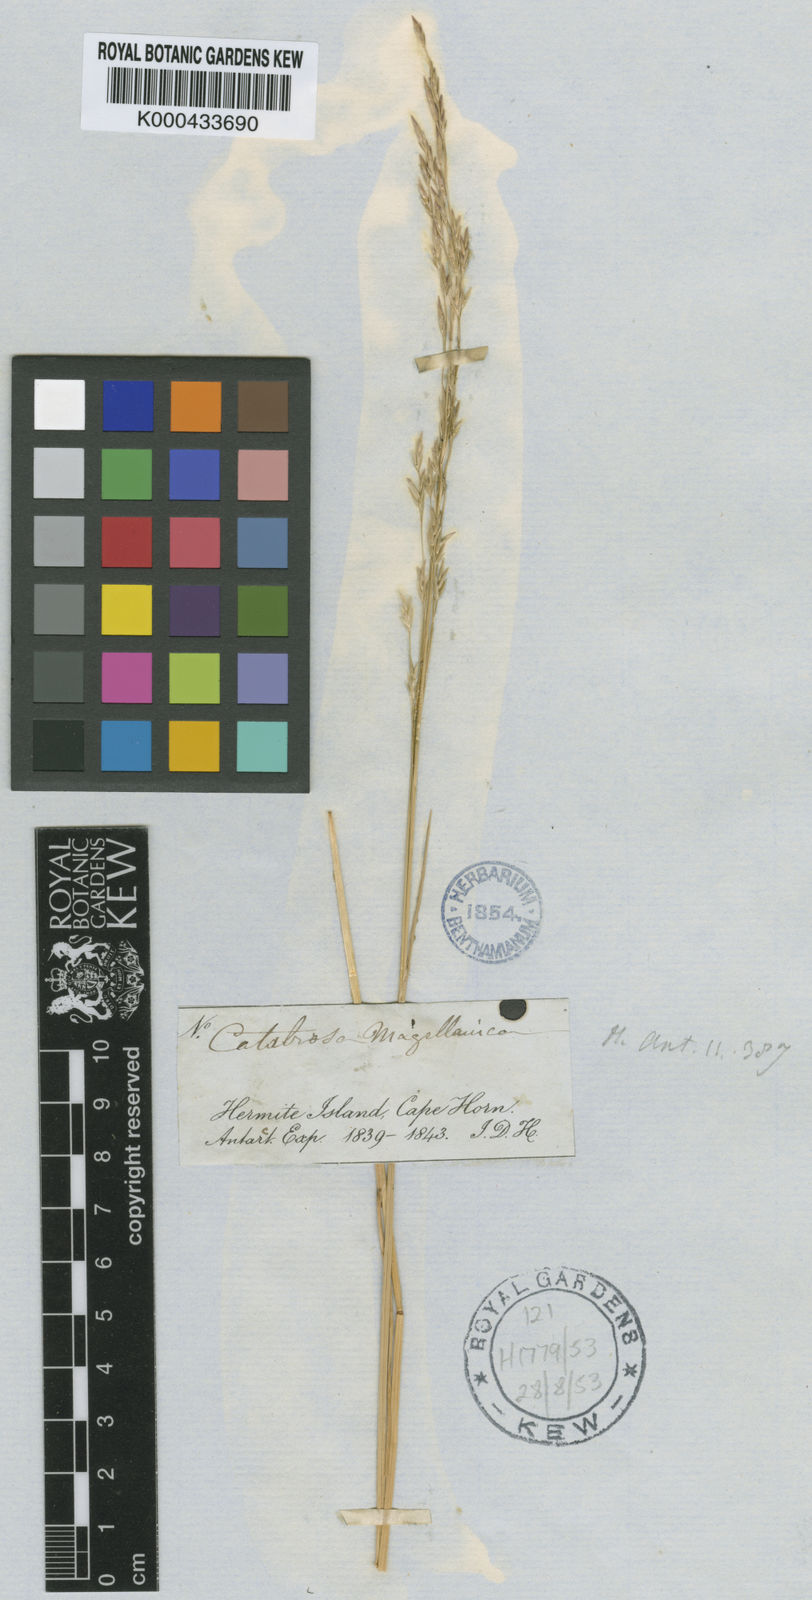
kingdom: Plantae
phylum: Tracheophyta
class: Liliopsida
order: Poales
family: Poaceae
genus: Puccinellia
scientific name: Puccinellia magellanica
